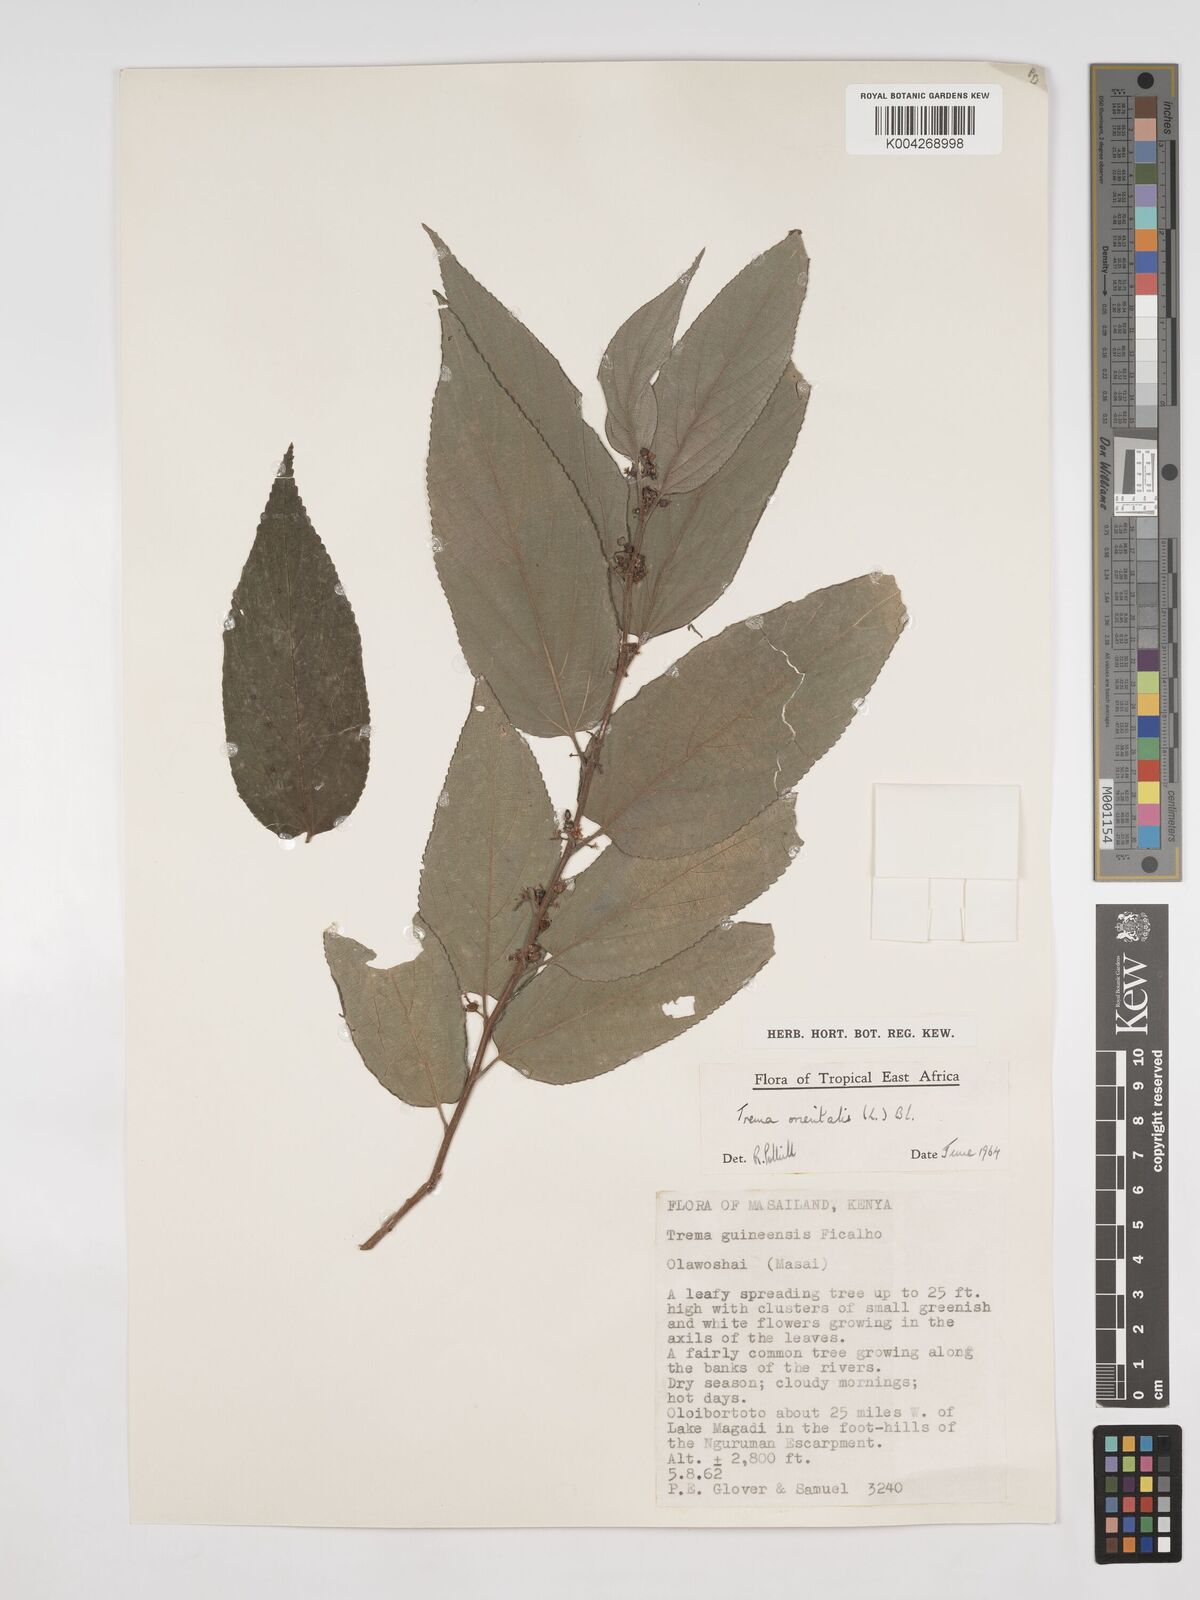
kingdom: Plantae
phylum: Tracheophyta
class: Magnoliopsida
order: Rosales
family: Cannabaceae
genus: Trema
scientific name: Trema orientale
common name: Indian charcoal tree
